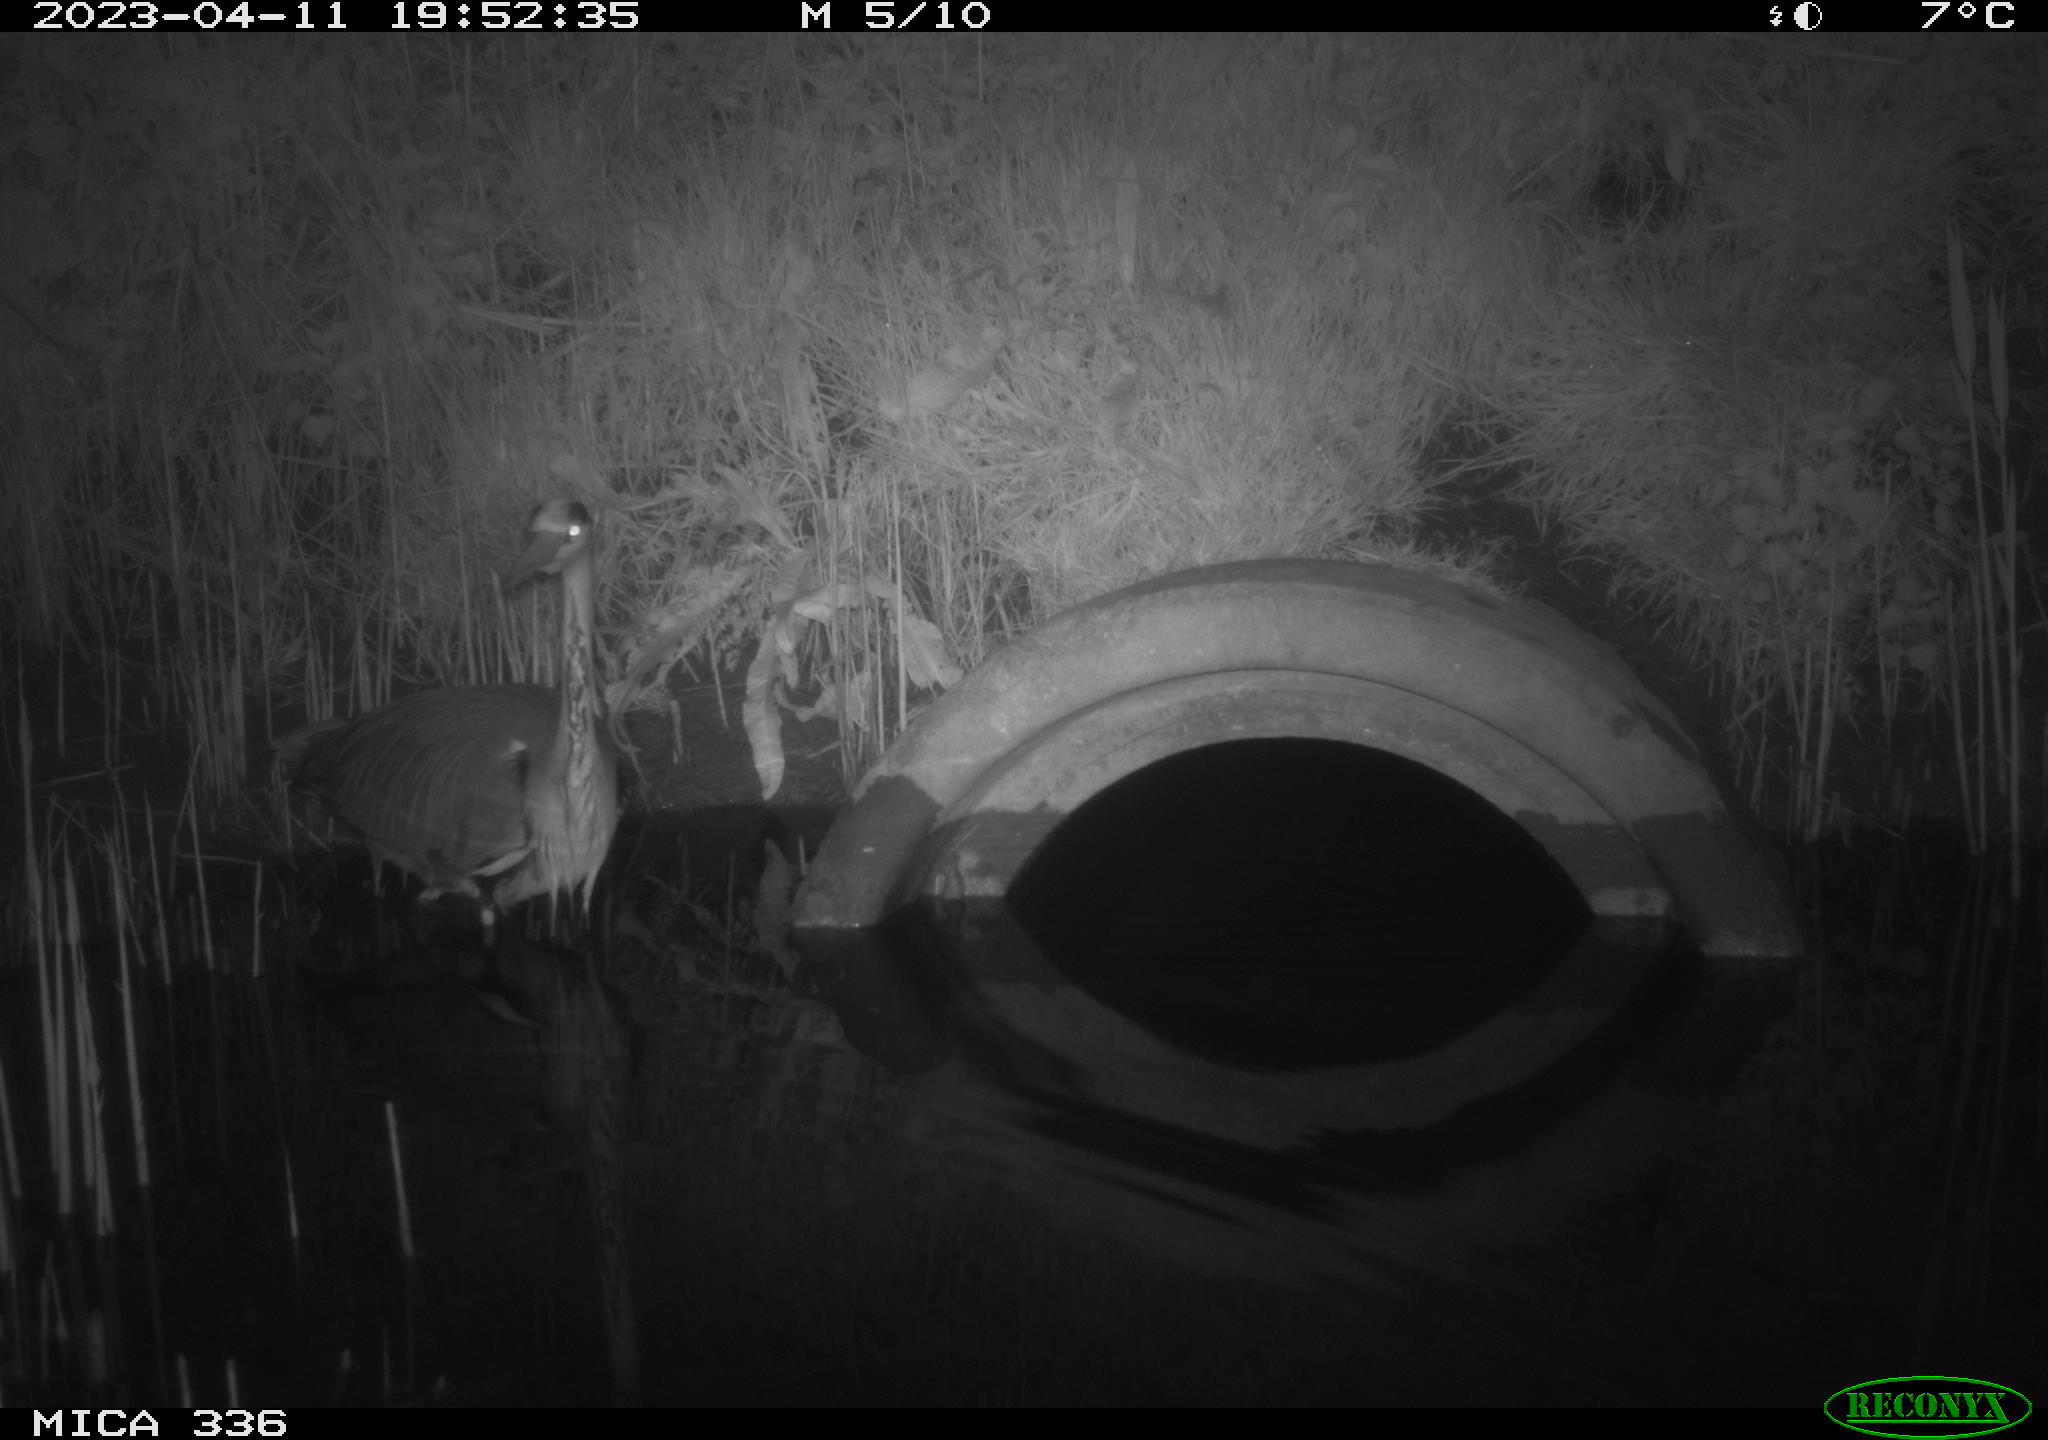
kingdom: Animalia
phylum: Chordata
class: Aves
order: Pelecaniformes
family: Ardeidae
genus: Ardea
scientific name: Ardea cinerea
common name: Grey heron
